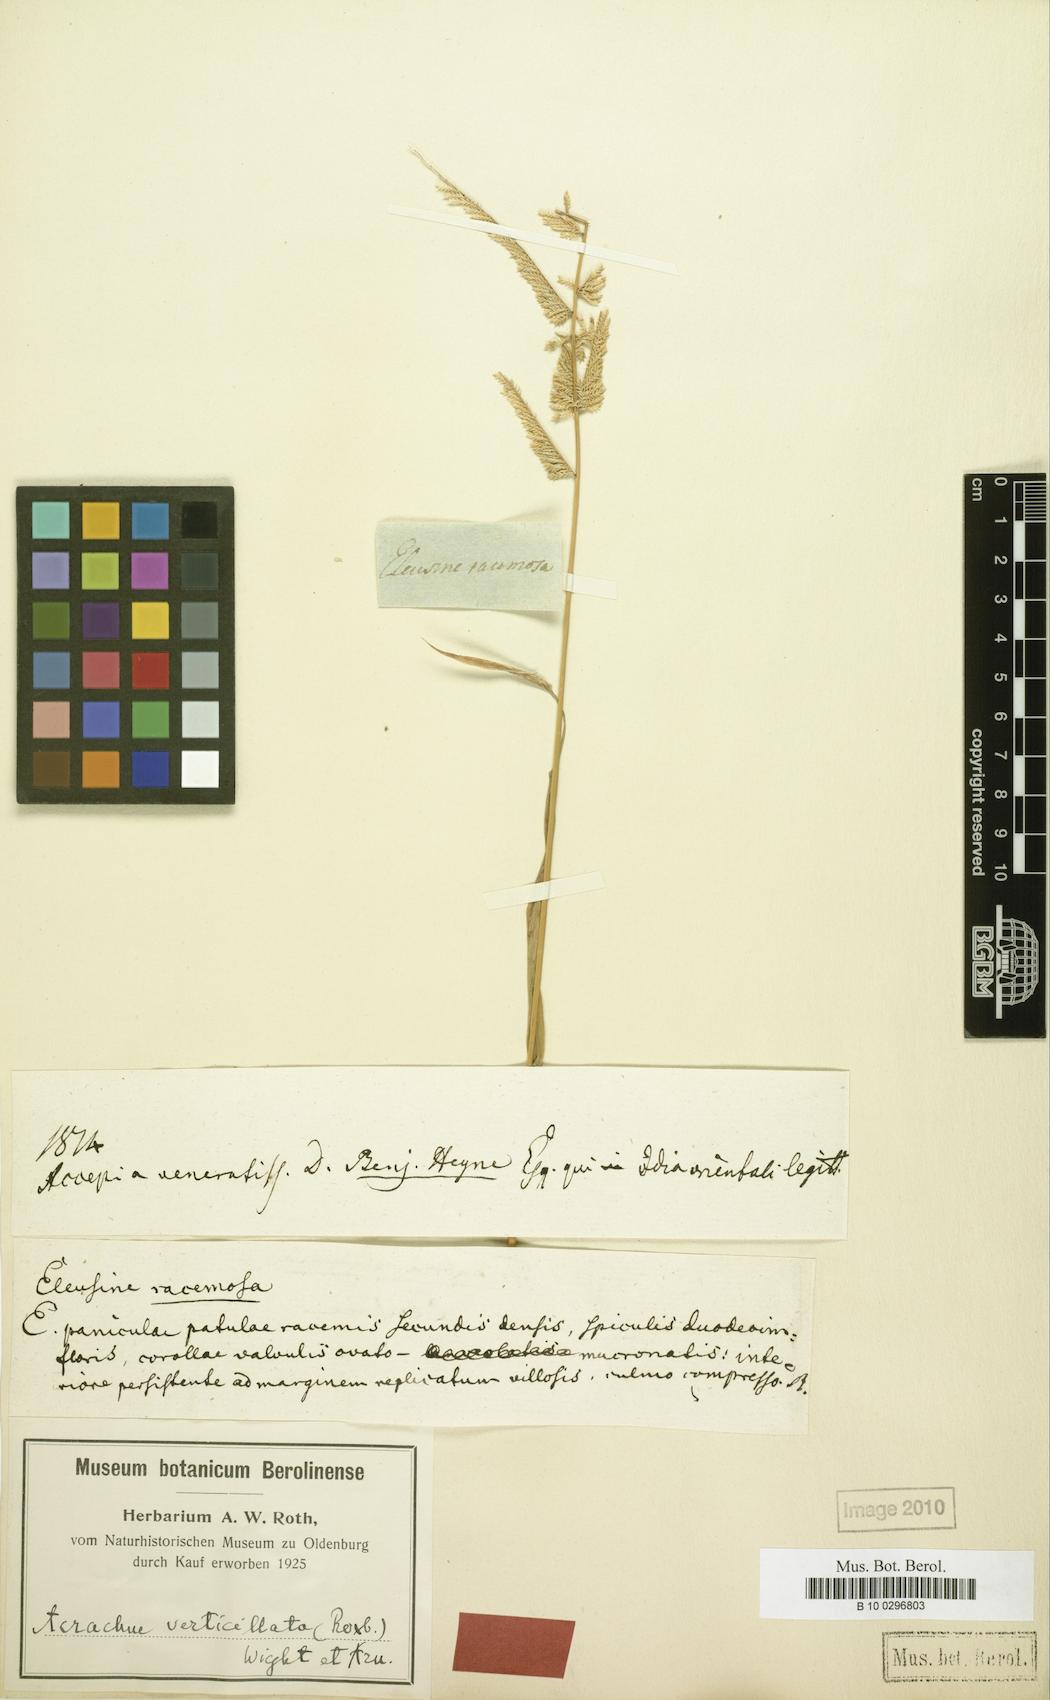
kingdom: Plantae
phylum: Tracheophyta
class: Liliopsida
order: Poales
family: Poaceae
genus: Acrachne
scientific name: Acrachne racemosa
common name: Goosegrass
